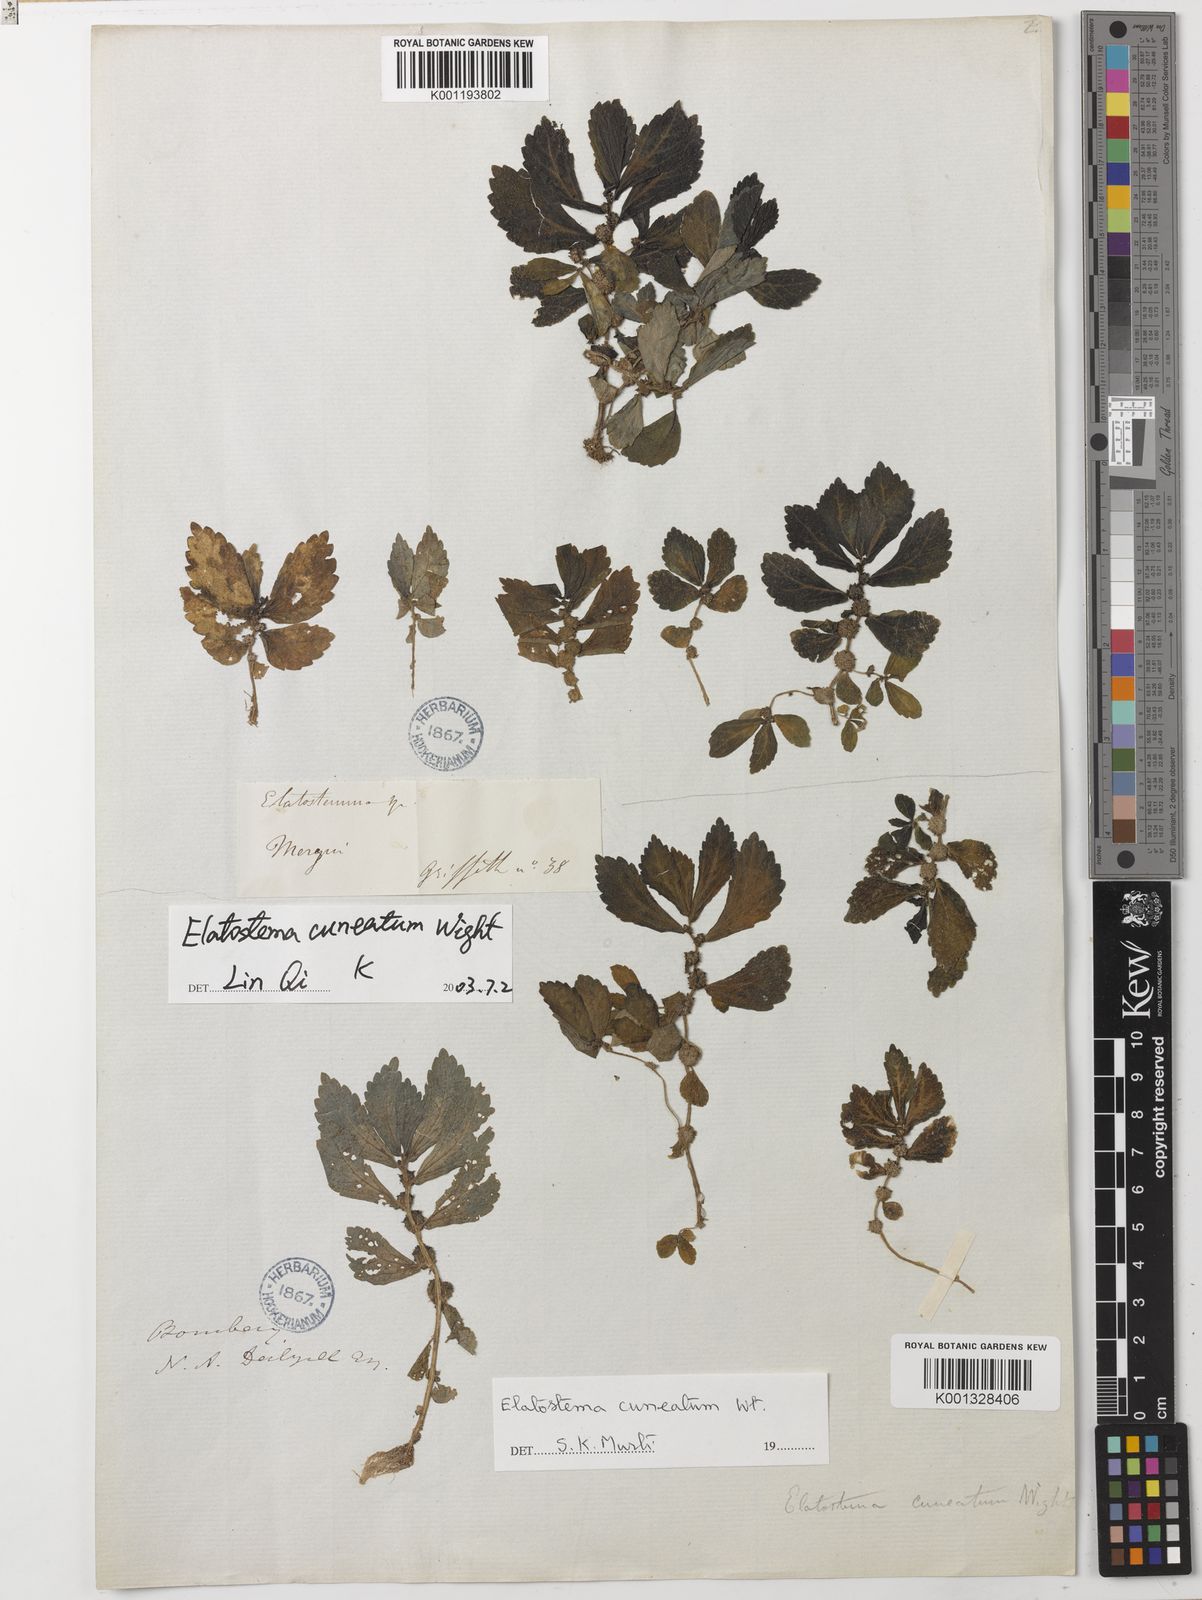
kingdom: Plantae
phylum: Tracheophyta
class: Magnoliopsida
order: Rosales
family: Urticaceae
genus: Elatostema
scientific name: Elatostema cuneatum
